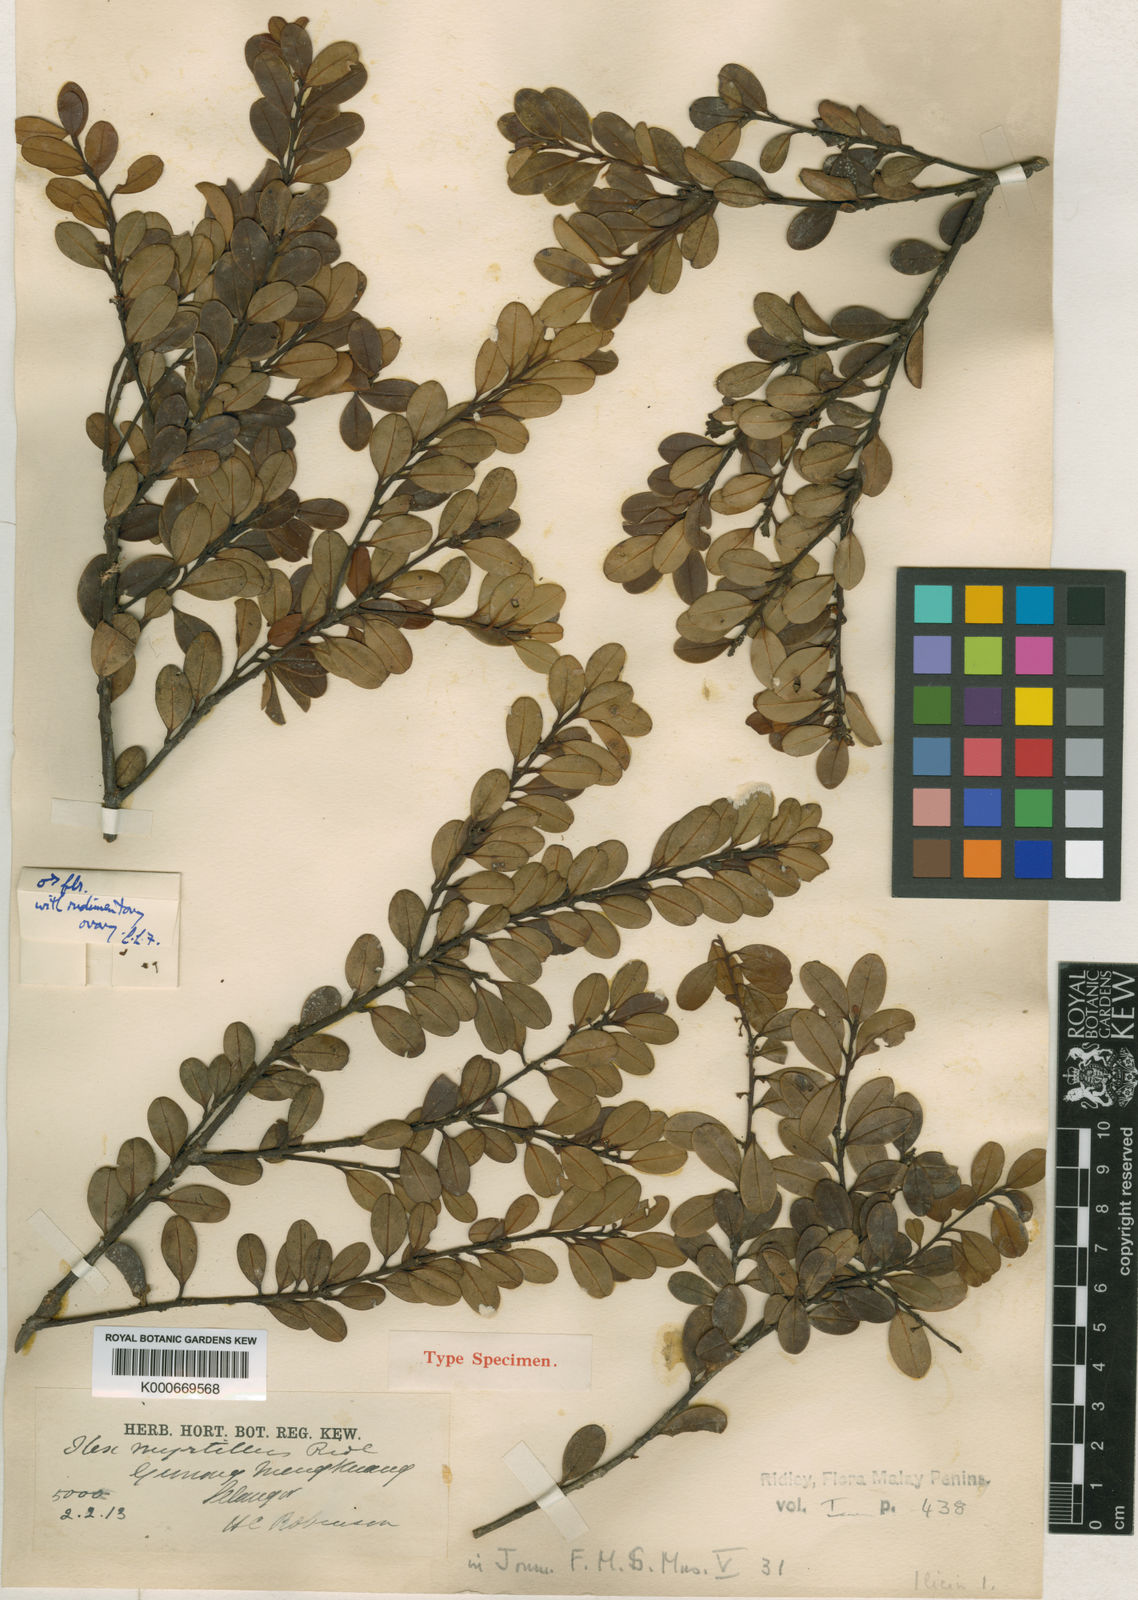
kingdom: Plantae
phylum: Tracheophyta
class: Magnoliopsida
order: Aquifoliales
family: Aquifoliaceae
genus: Ilex
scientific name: Ilex
